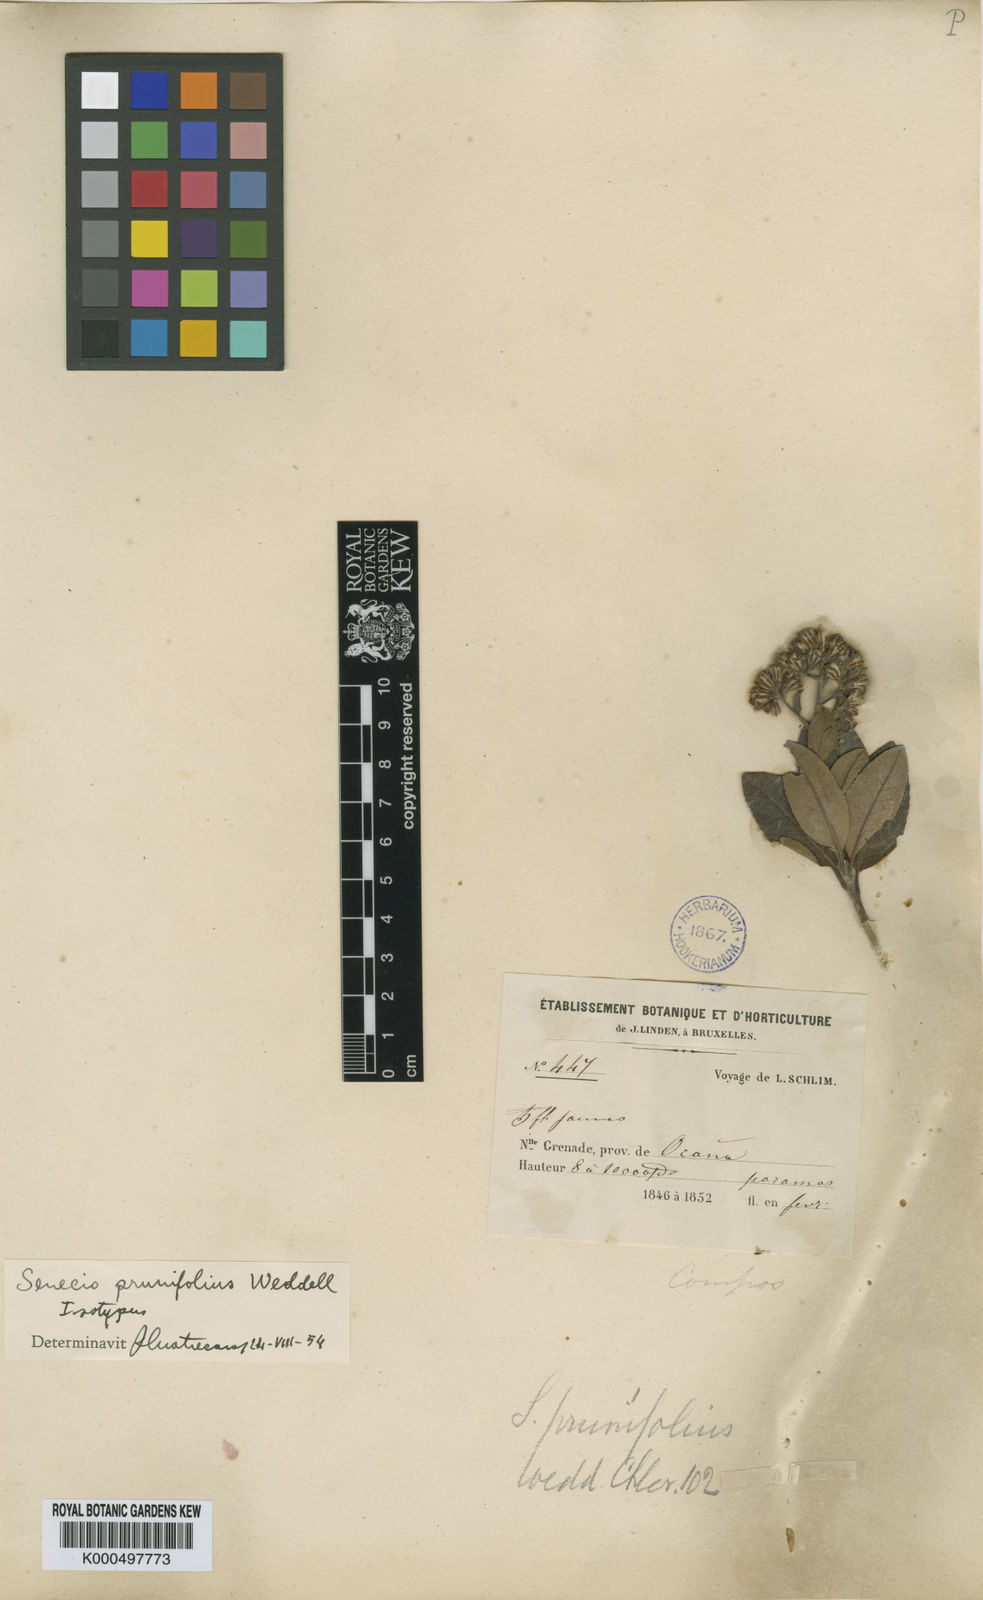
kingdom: Plantae
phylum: Tracheophyta
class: Magnoliopsida
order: Asterales
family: Asteraceae
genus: Monticalia
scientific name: Monticalia prunifolia
